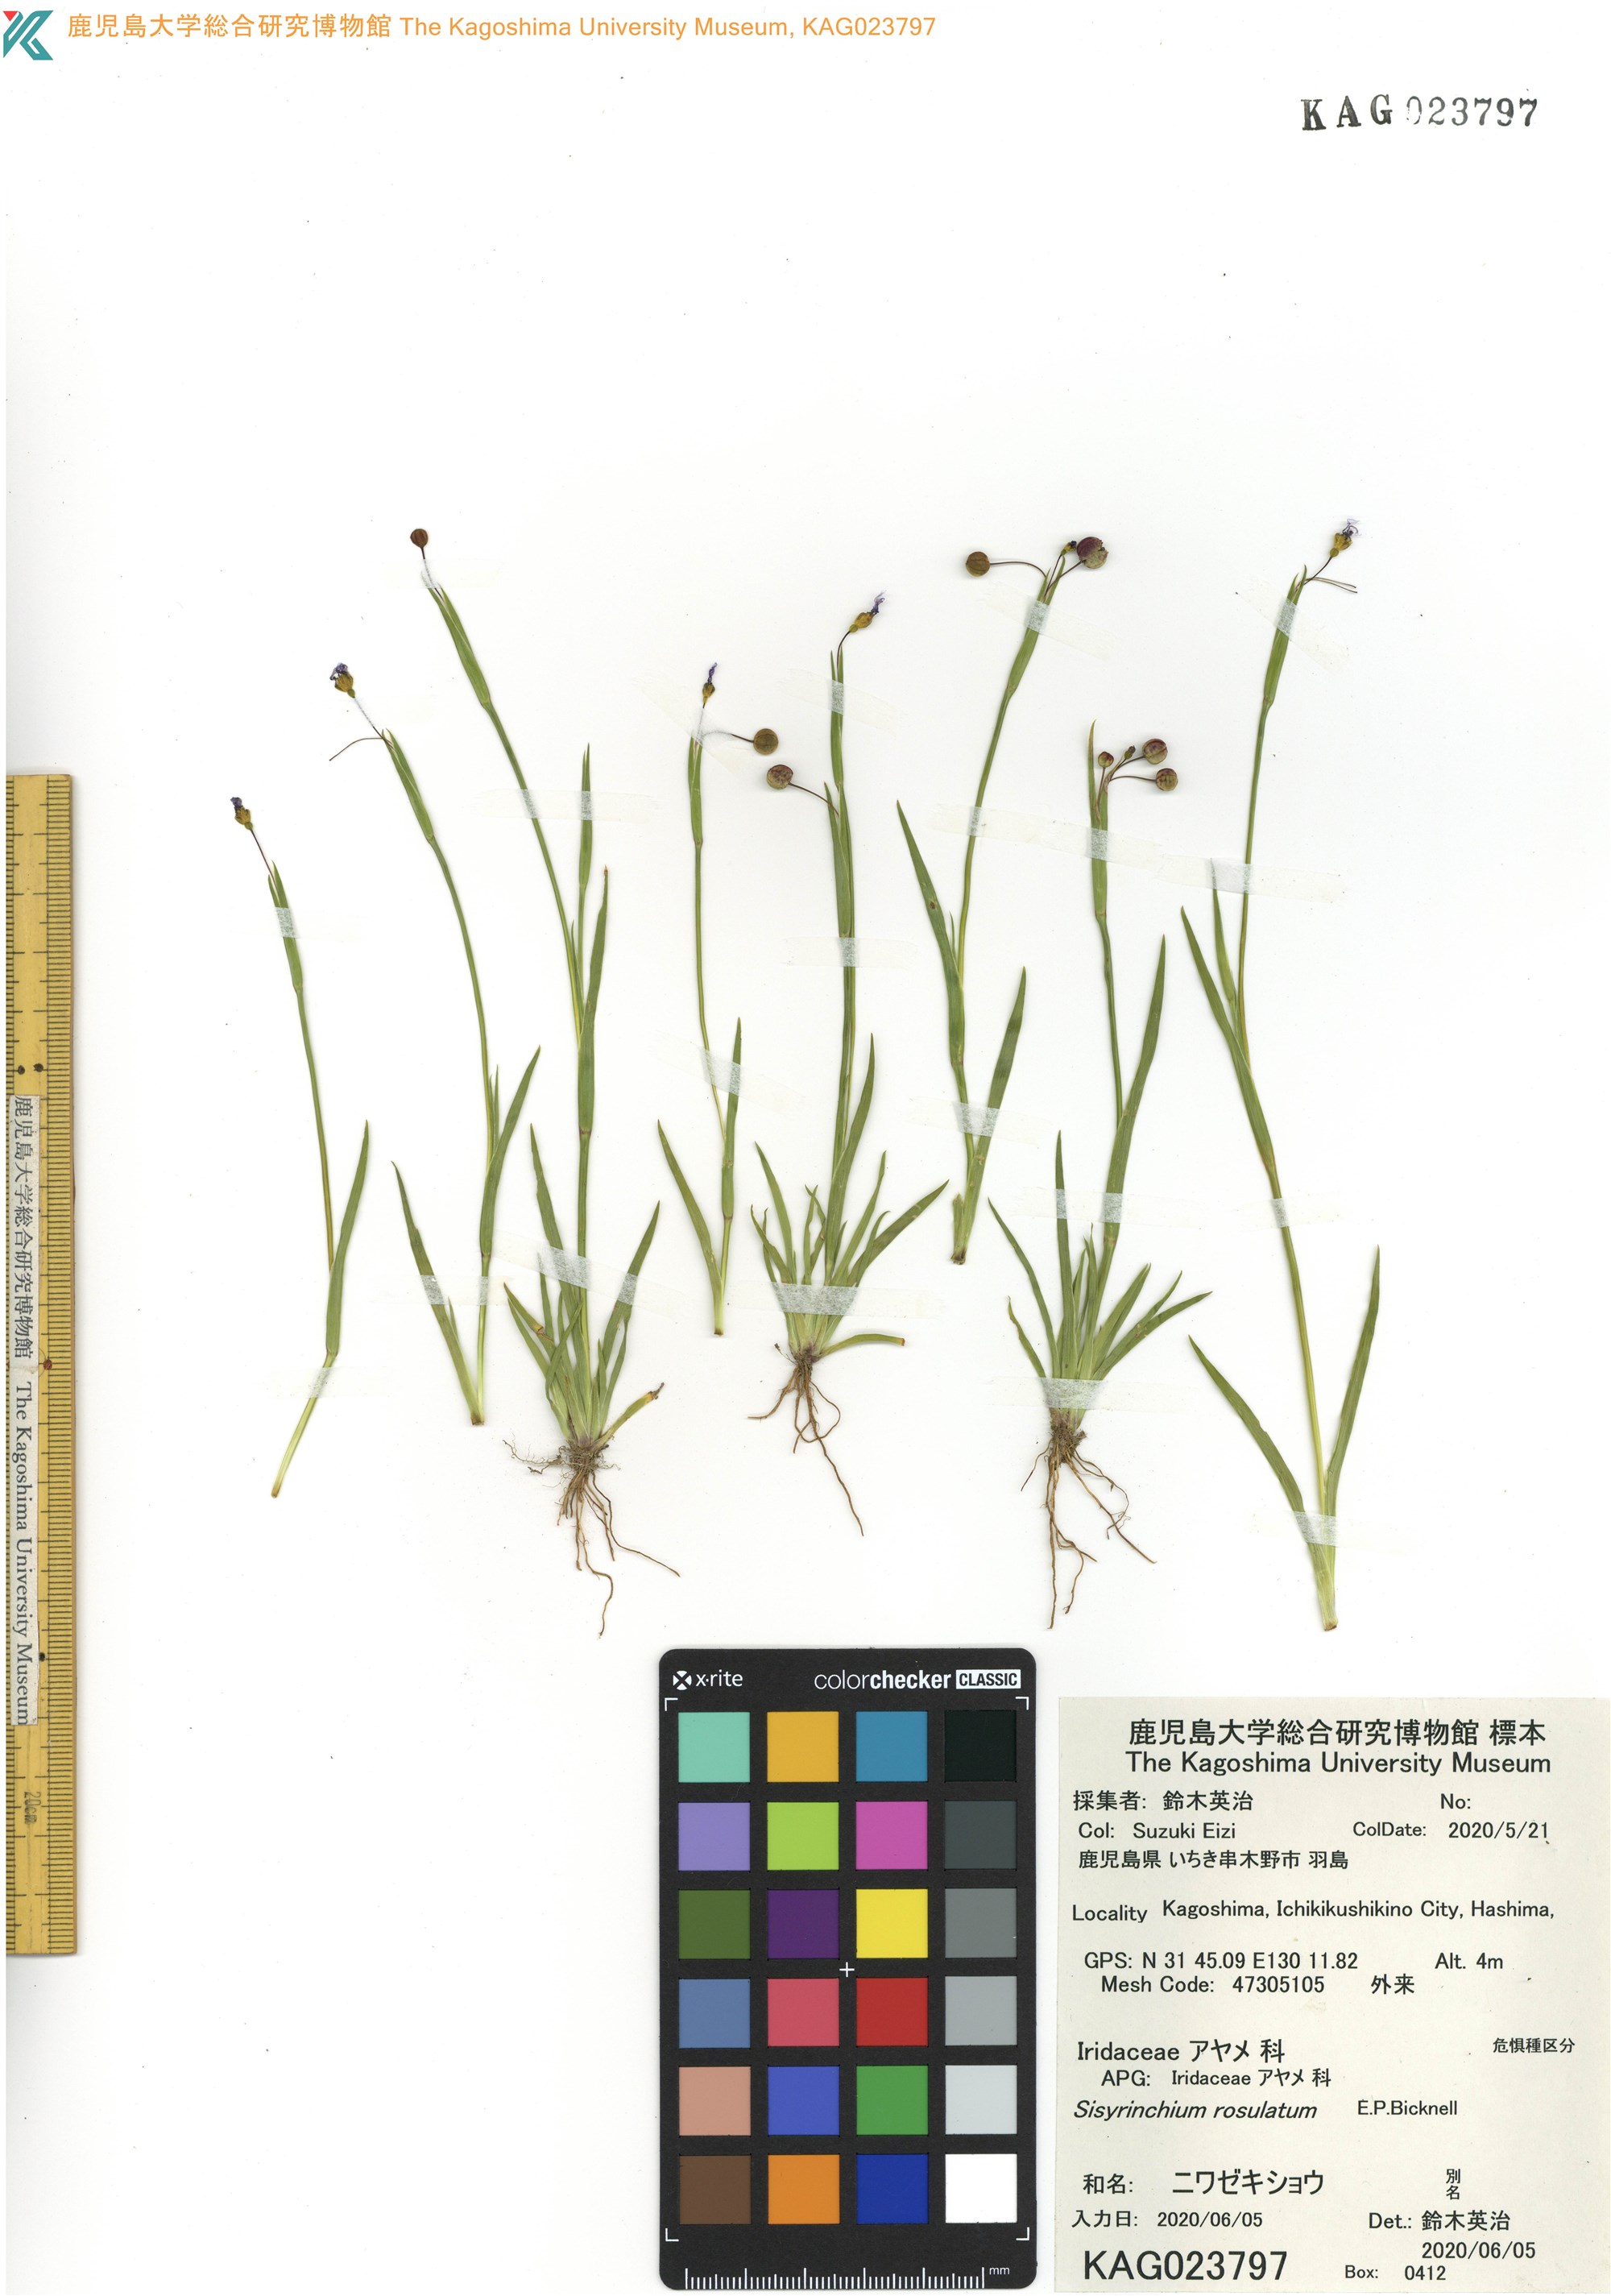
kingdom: Plantae
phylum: Tracheophyta
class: Liliopsida
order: Asparagales
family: Iridaceae
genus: Sisyrinchium
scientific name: Sisyrinchium rosulatum
